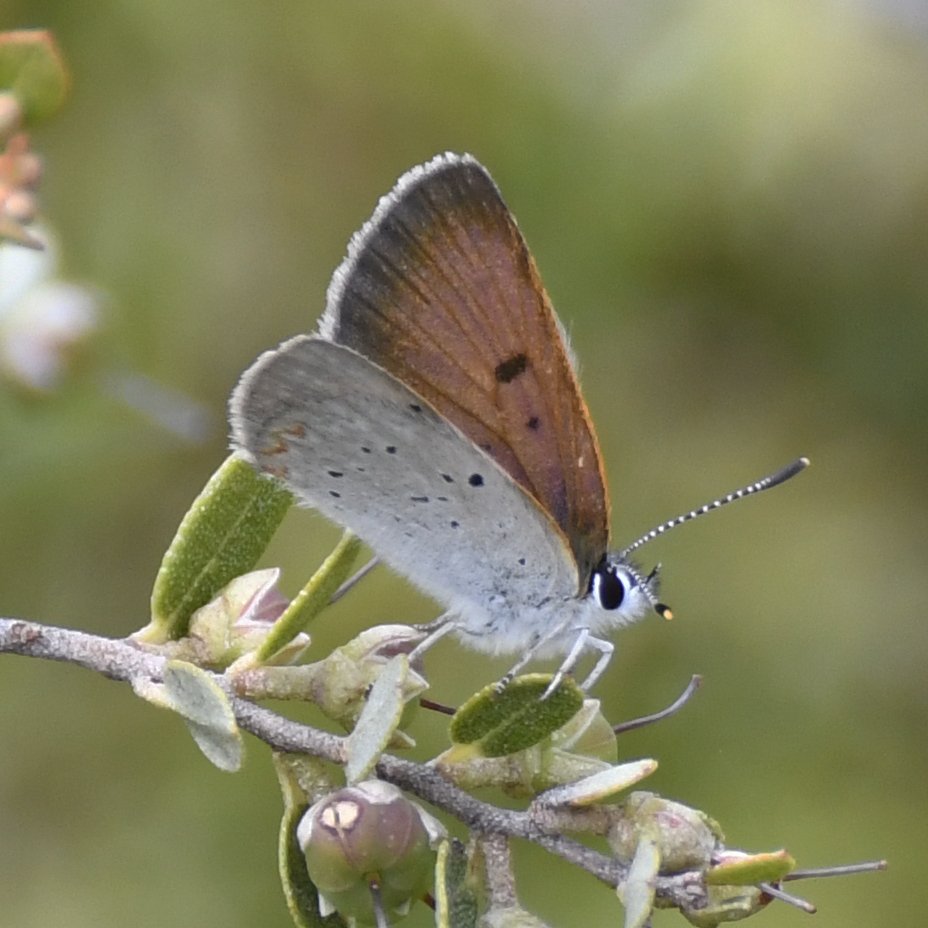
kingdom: Animalia
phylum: Arthropoda
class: Insecta
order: Lepidoptera
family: Sesiidae
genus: Sesia
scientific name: Sesia Lycaena epixanthe
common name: Bog Copper
